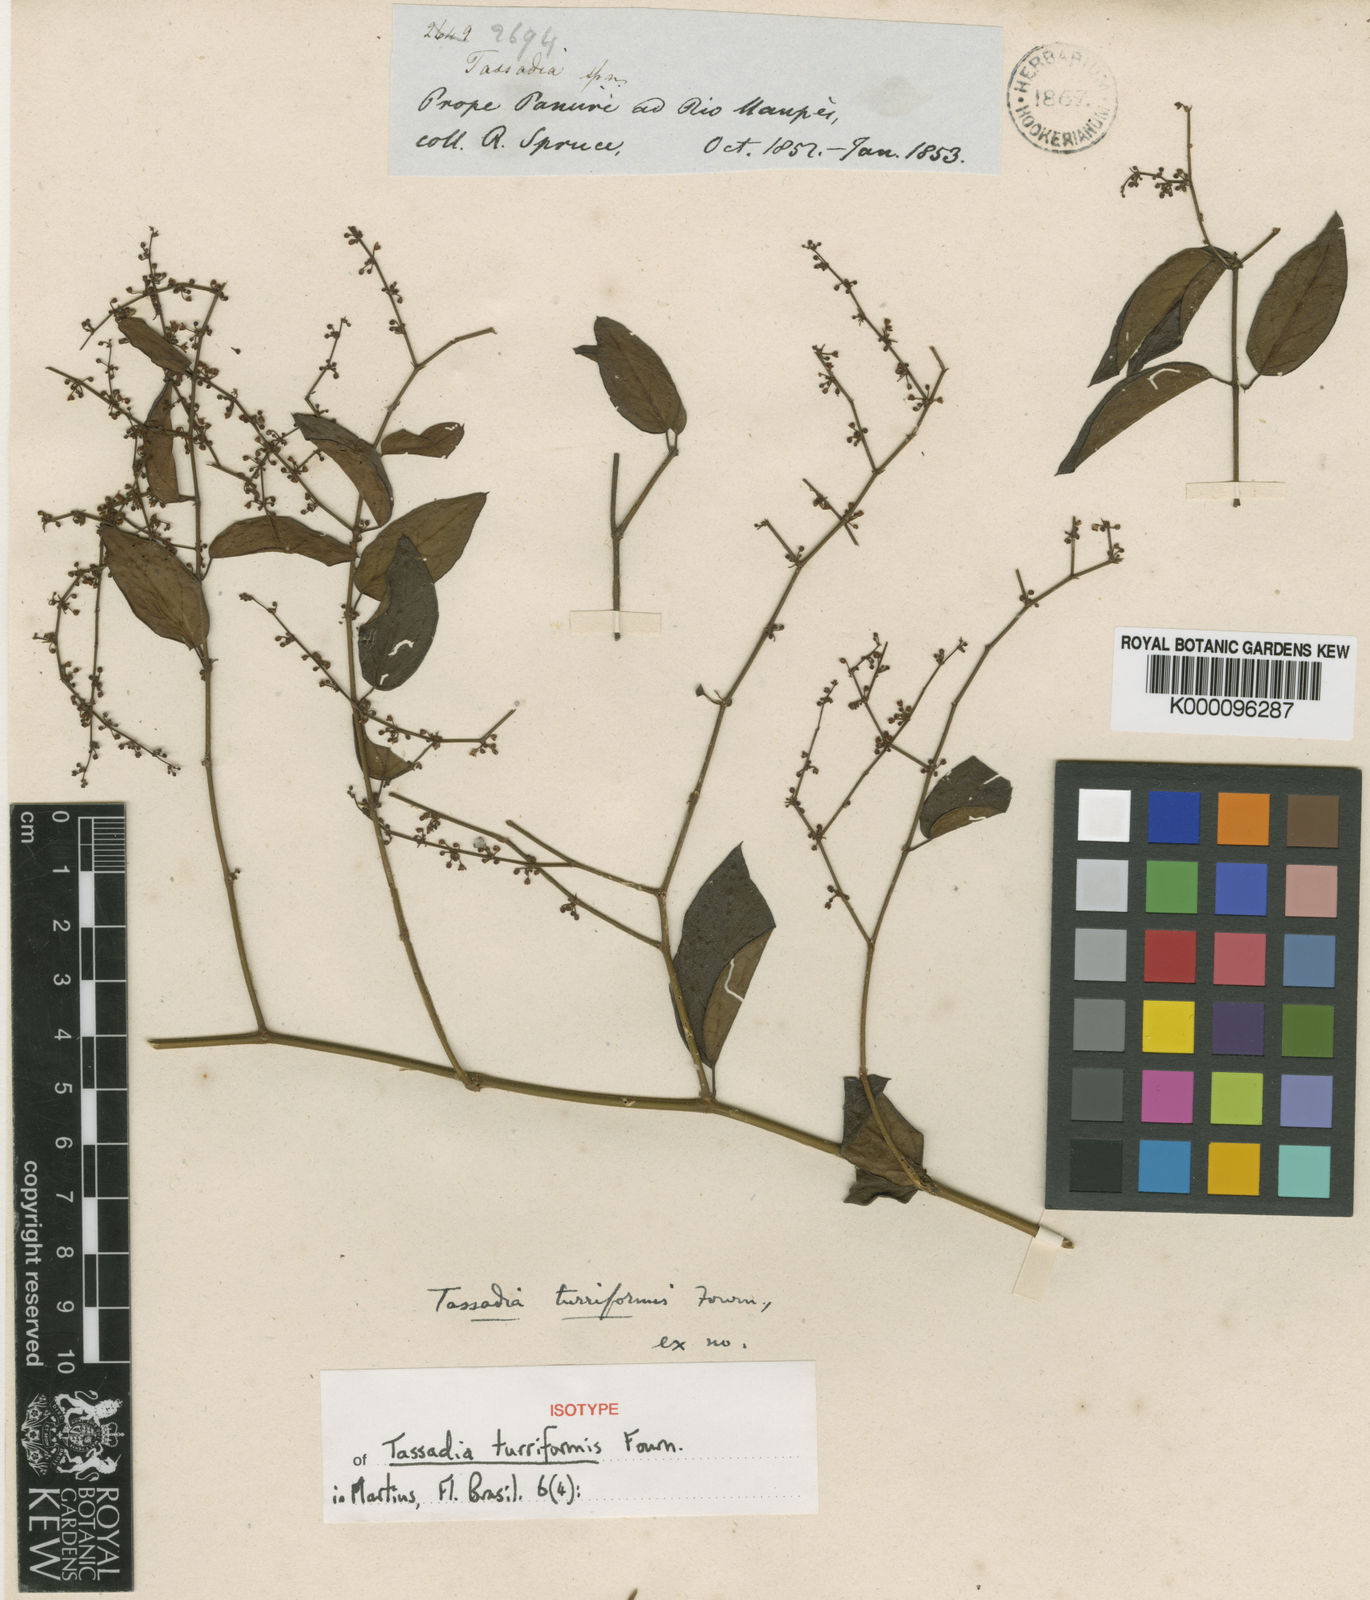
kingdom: Plantae
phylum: Tracheophyta
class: Magnoliopsida
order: Gentianales
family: Apocynaceae
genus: Tassadia
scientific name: Tassadia obovata
